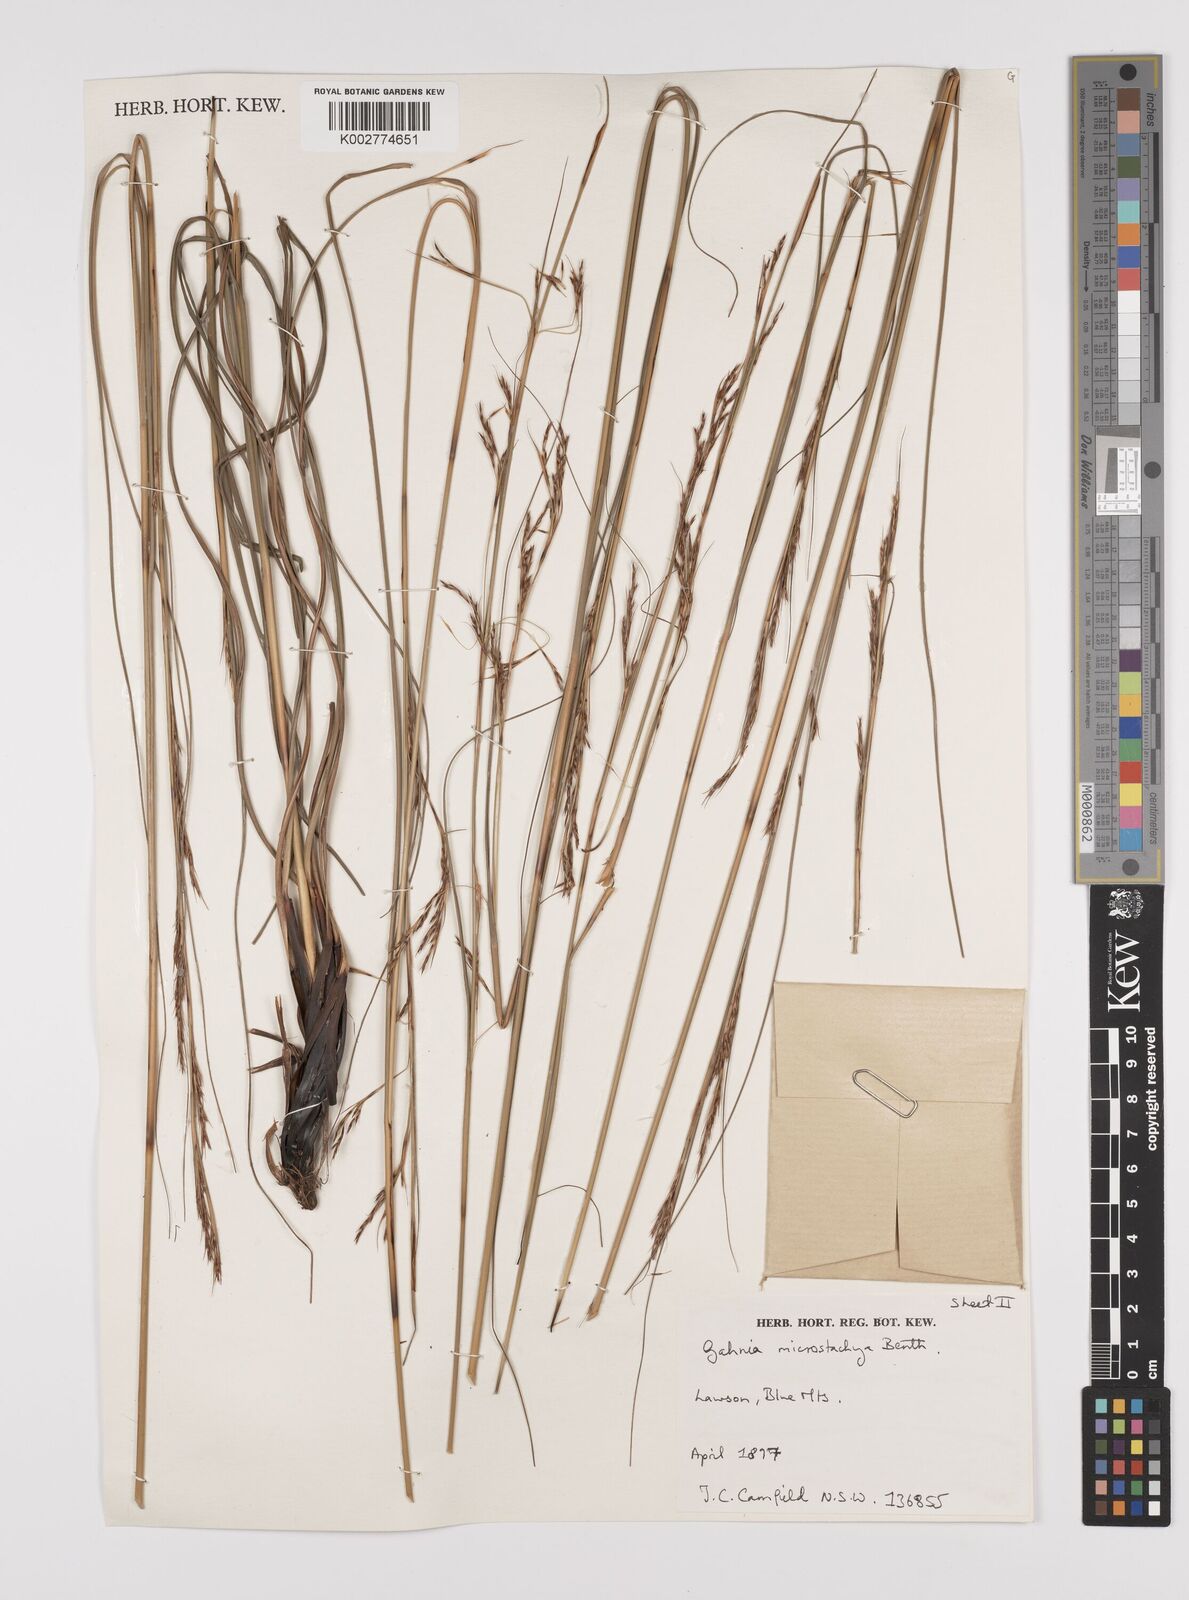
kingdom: Plantae
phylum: Tracheophyta
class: Liliopsida
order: Poales
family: Cyperaceae
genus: Gahnia
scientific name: Gahnia microstachya
